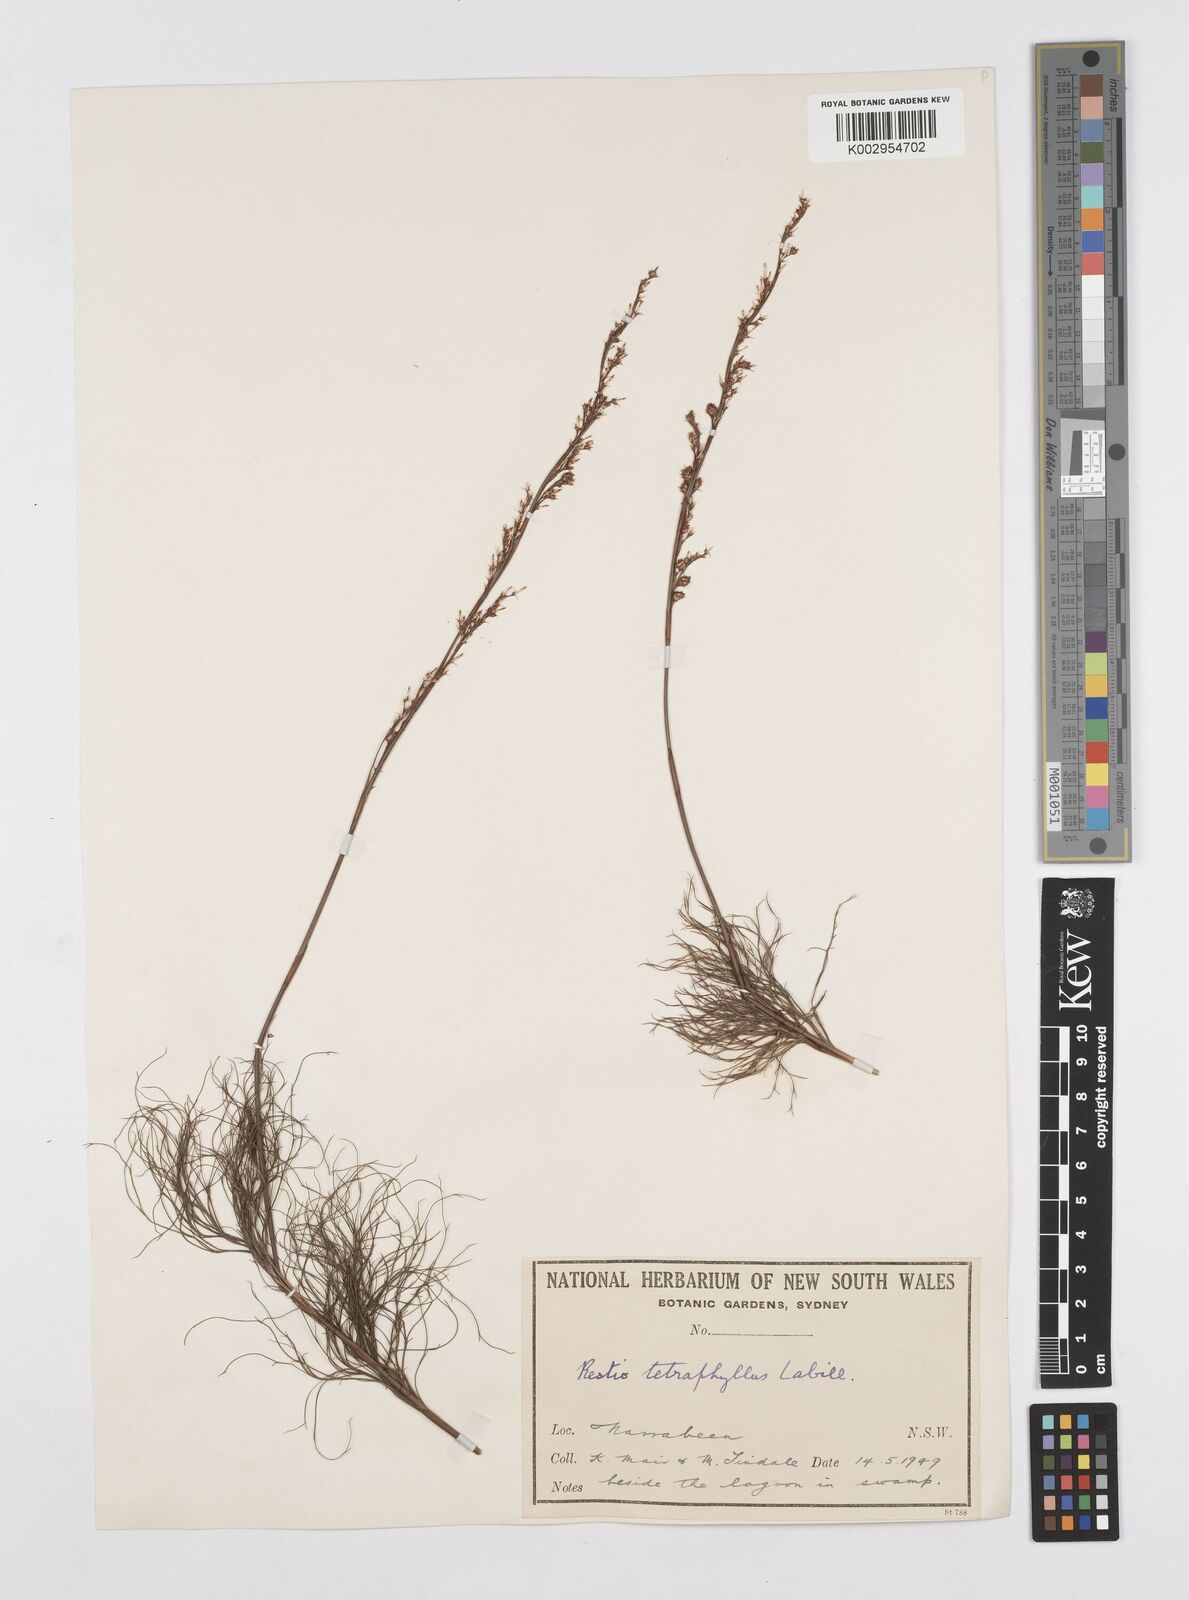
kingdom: Plantae
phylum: Tracheophyta
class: Liliopsida
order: Poales
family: Restionaceae
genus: Baloskion
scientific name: Baloskion tetraphyllum
